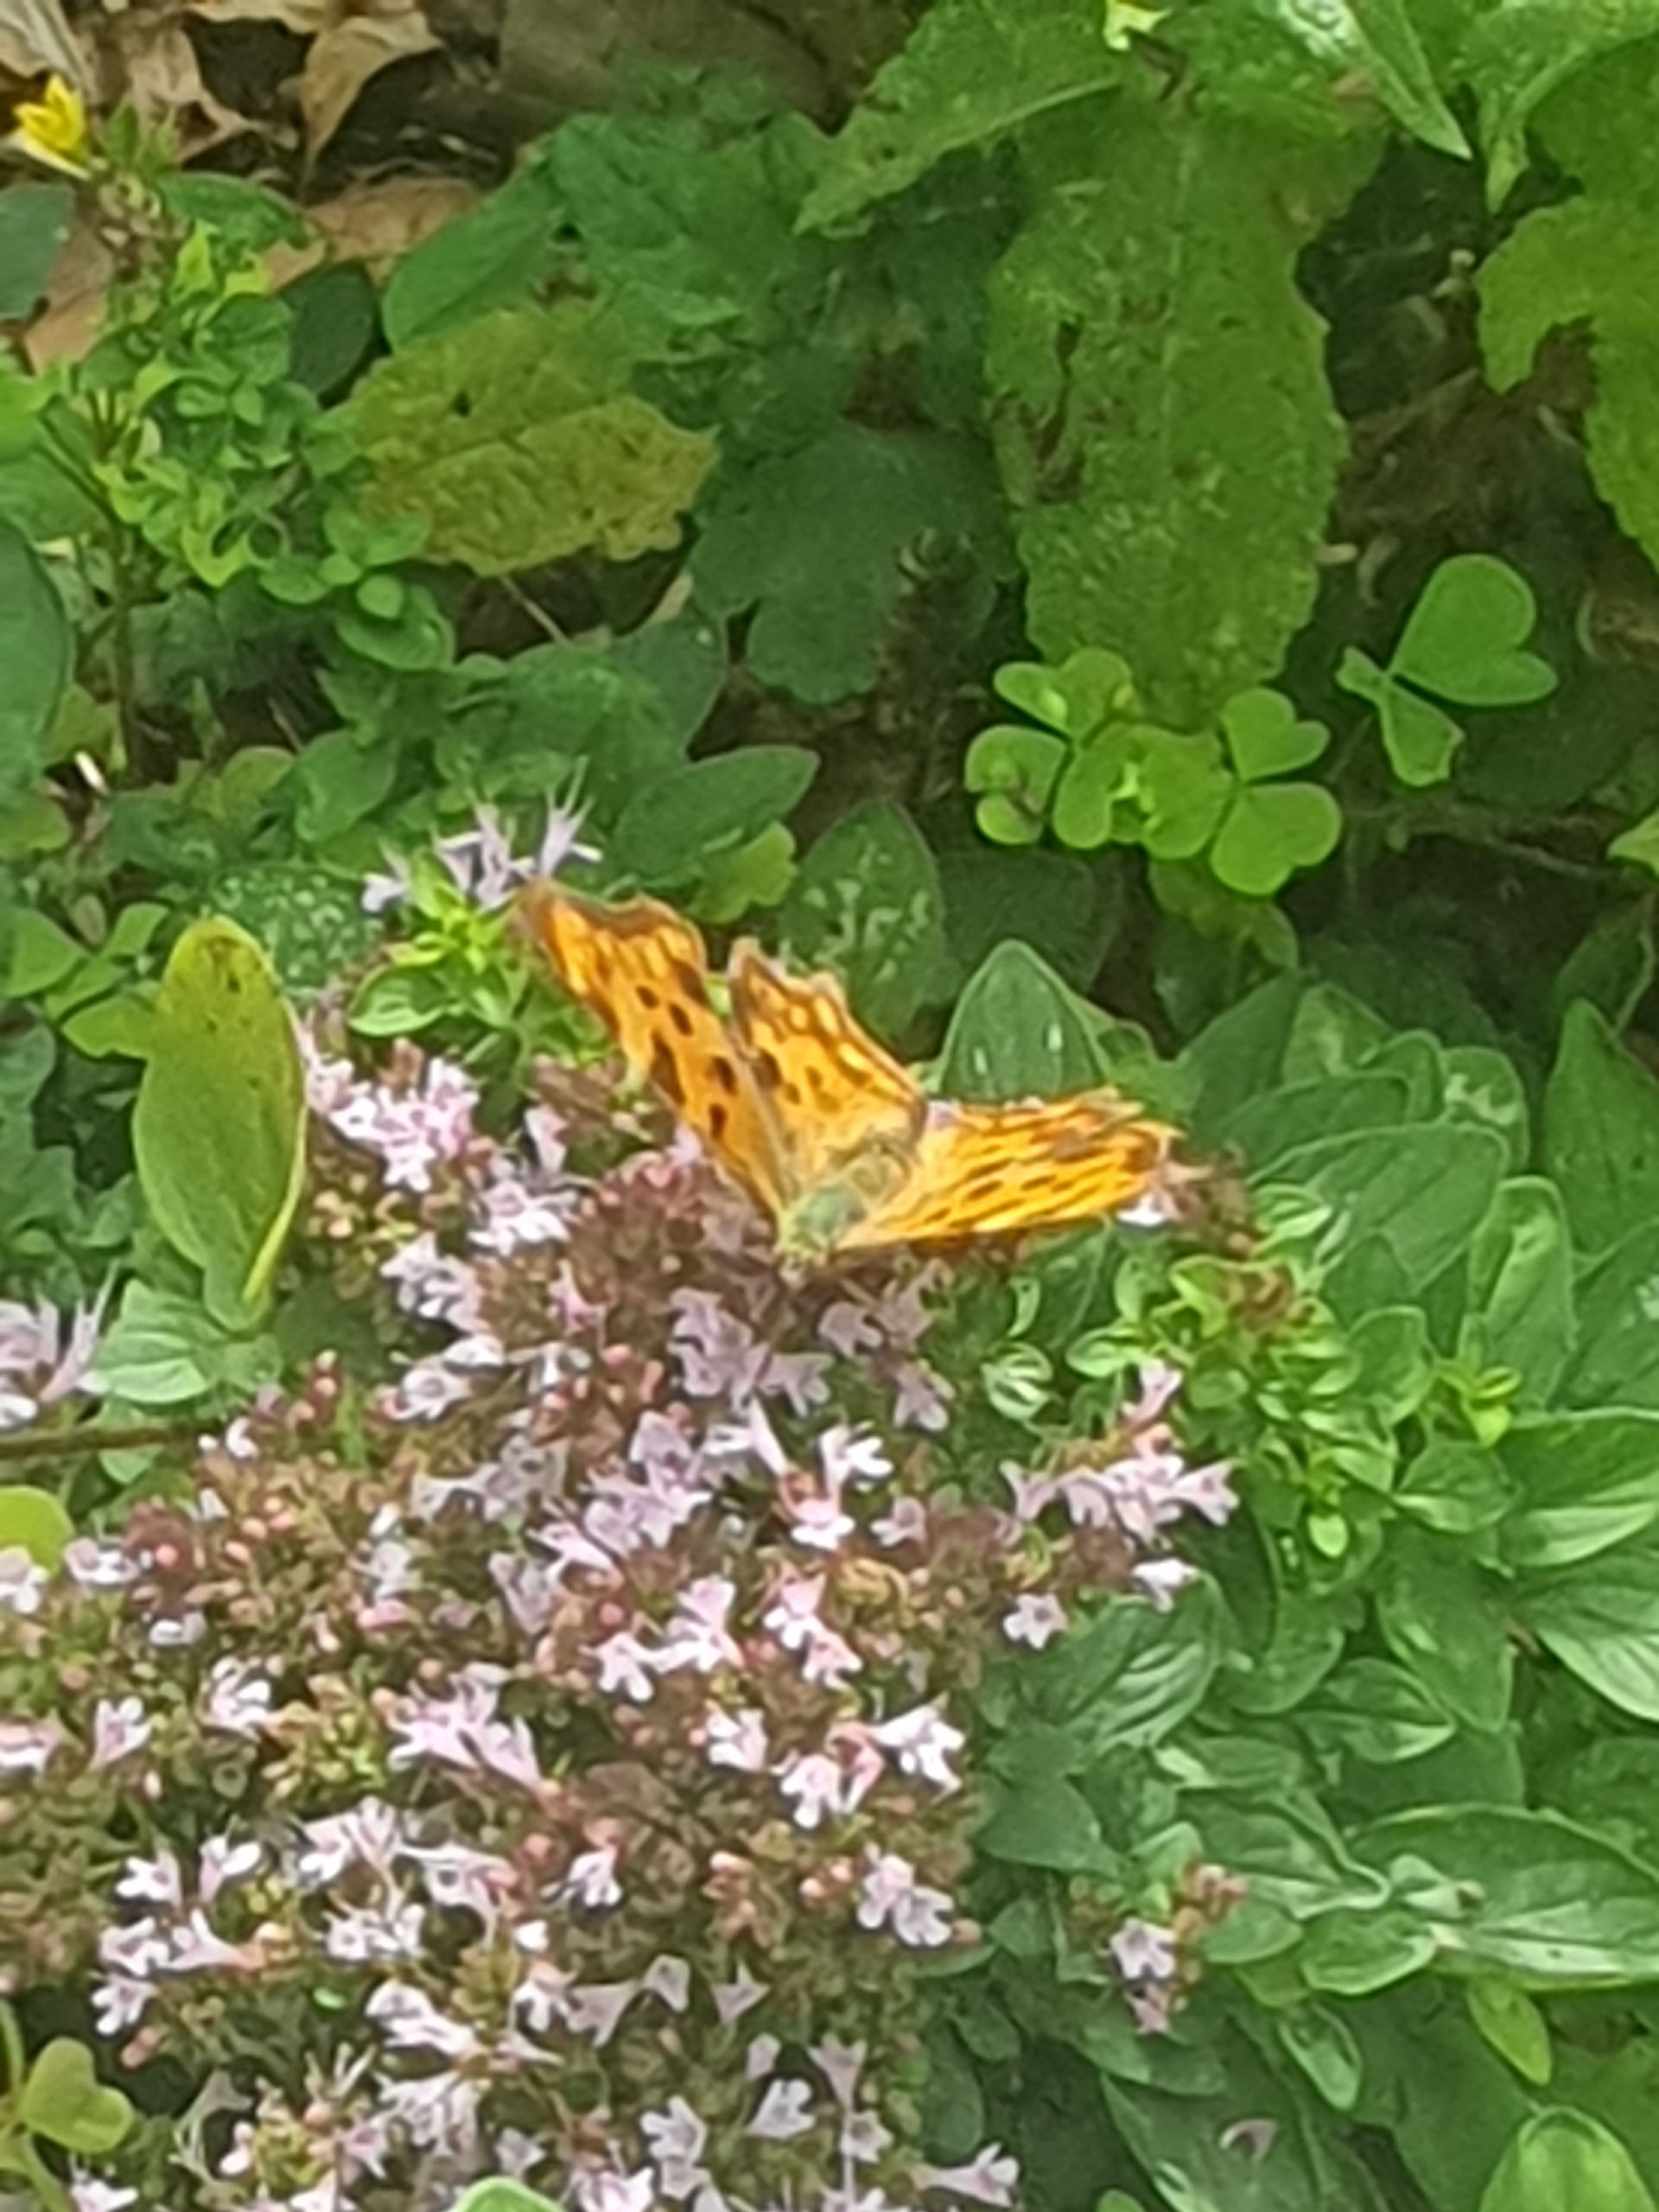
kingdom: Animalia
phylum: Arthropoda
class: Insecta
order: Lepidoptera
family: Nymphalidae
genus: Polygonia
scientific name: Polygonia c-album
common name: Det hvide C
